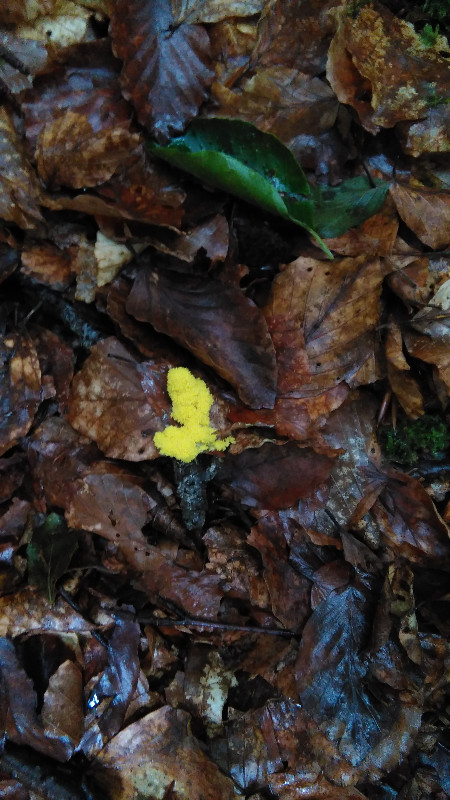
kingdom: Protozoa
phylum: Mycetozoa
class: Myxomycetes
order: Physarales
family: Physaraceae
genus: Fuligo
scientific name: Fuligo septica
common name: gul troldsmør
